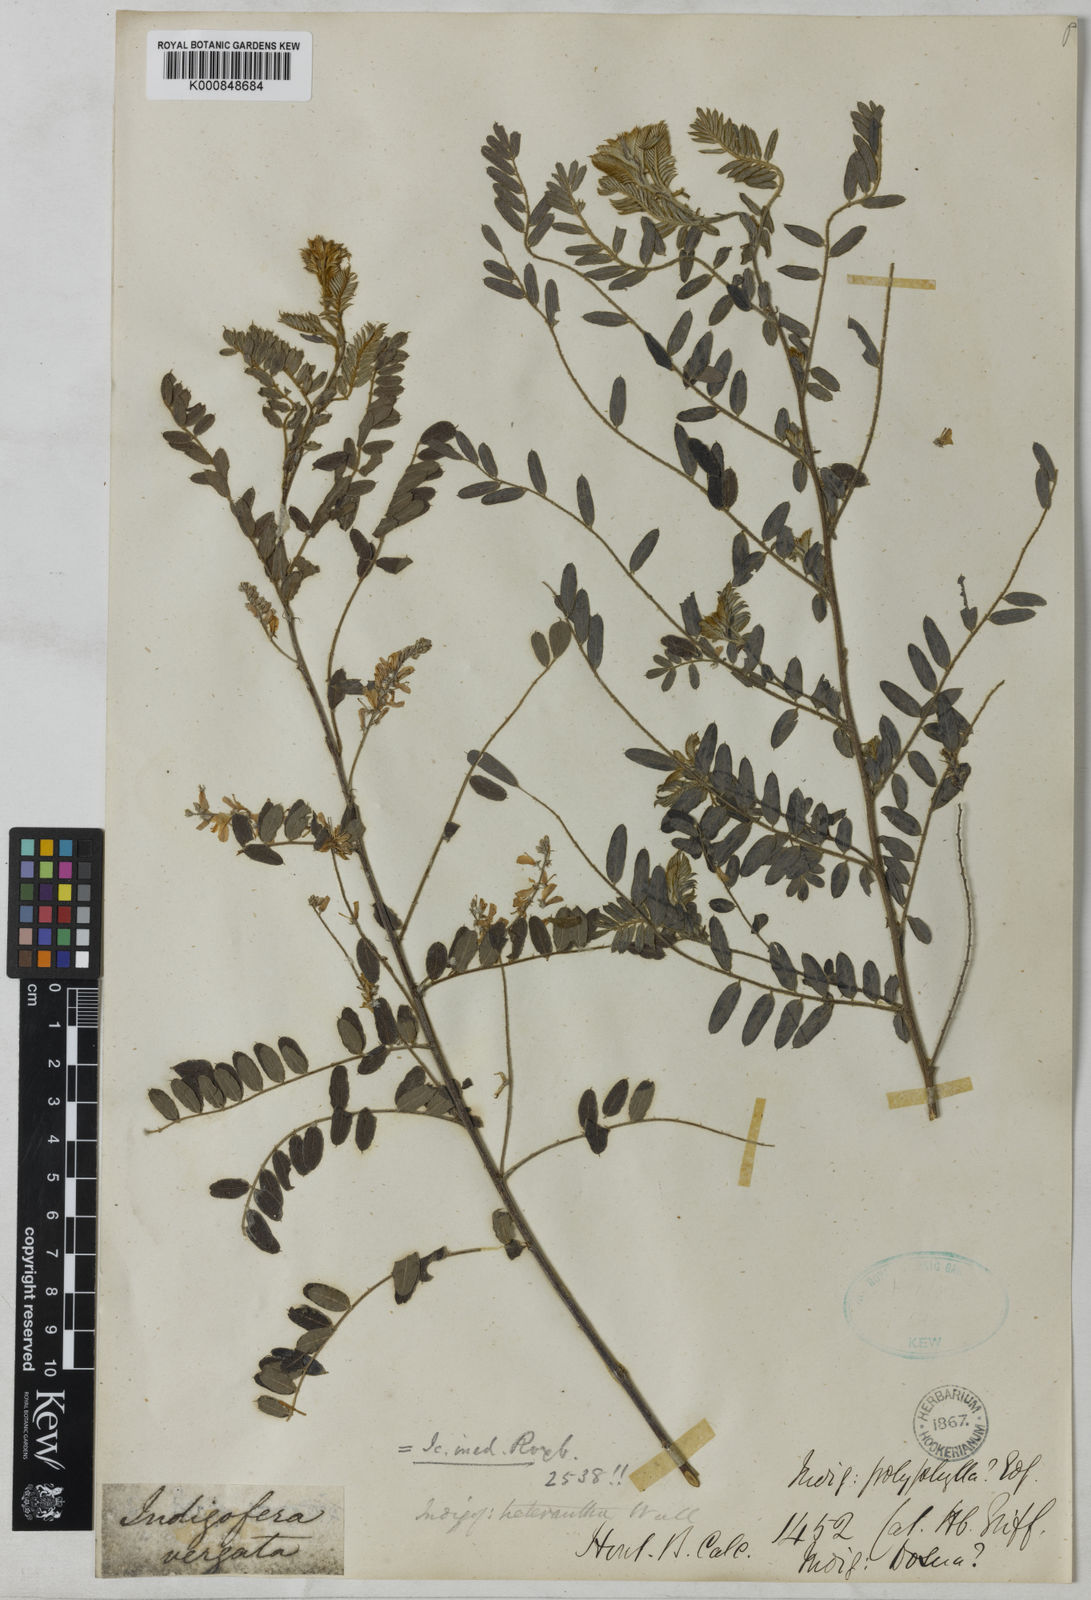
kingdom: Plantae
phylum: Tracheophyta
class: Magnoliopsida
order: Fabales
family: Fabaceae
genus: Indigofera
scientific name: Indigofera dosua
